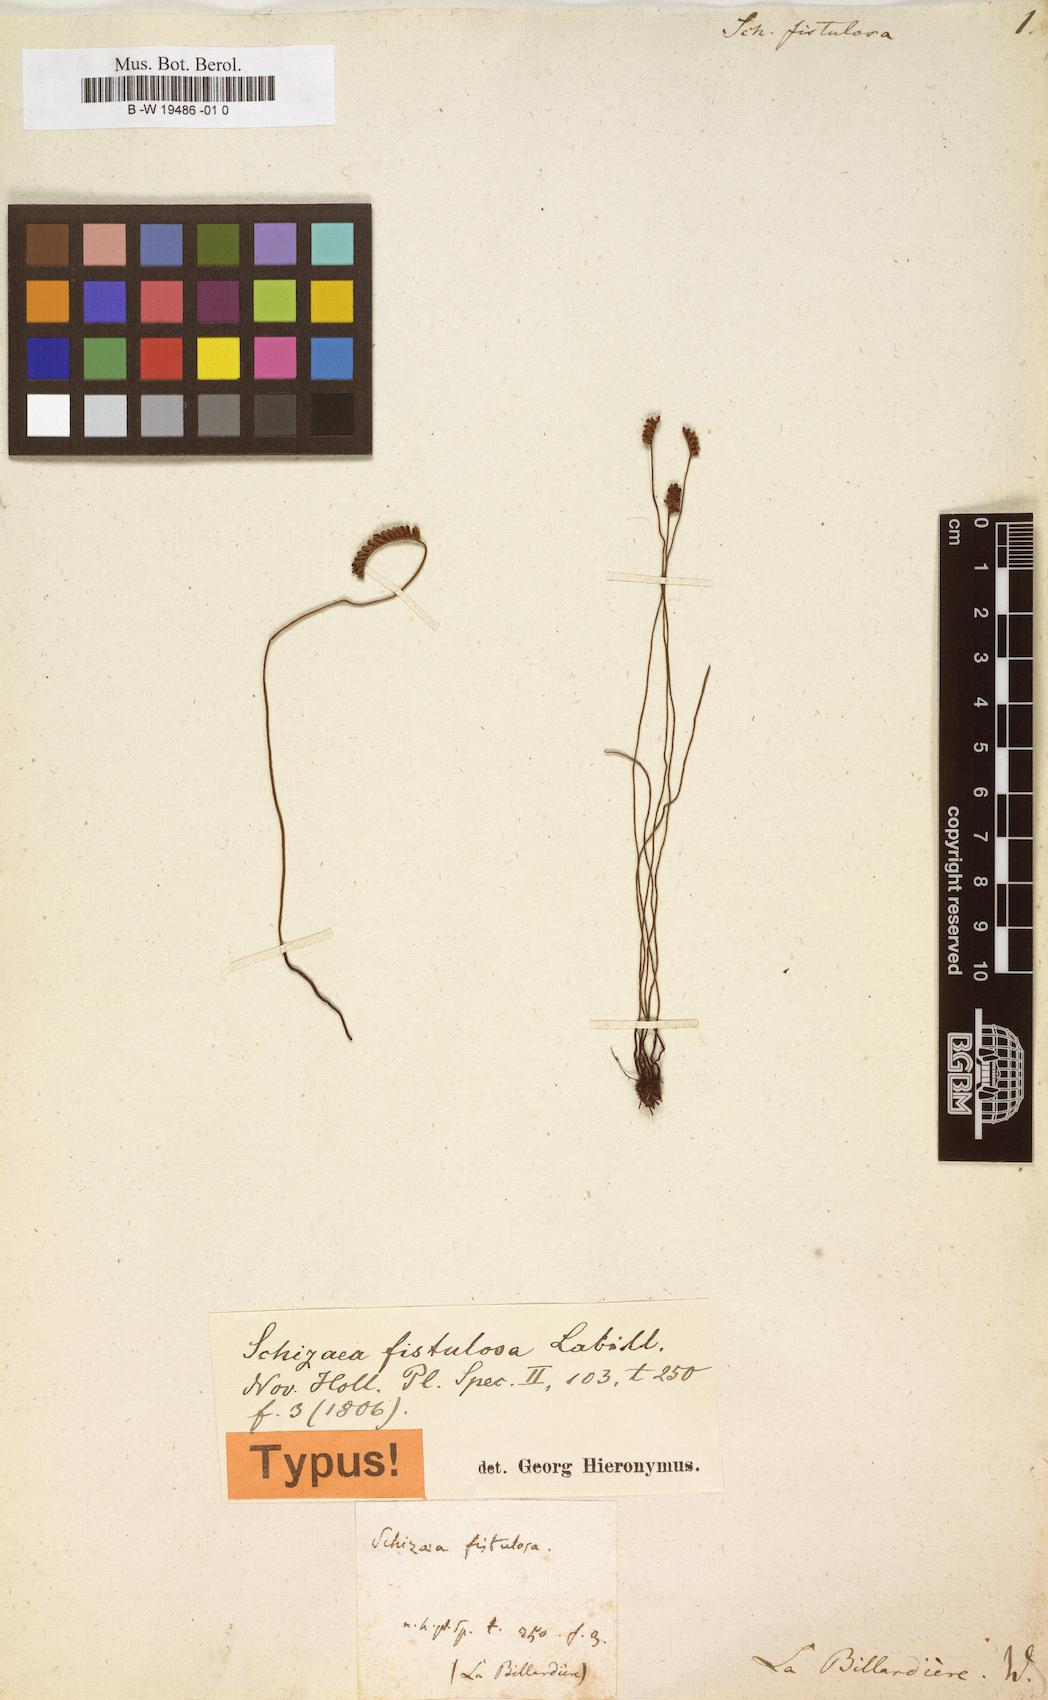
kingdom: Plantae
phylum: Tracheophyta
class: Polypodiopsida
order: Schizaeales
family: Schizaeaceae
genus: Microschizaea
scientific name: Microschizaea fistulosa
